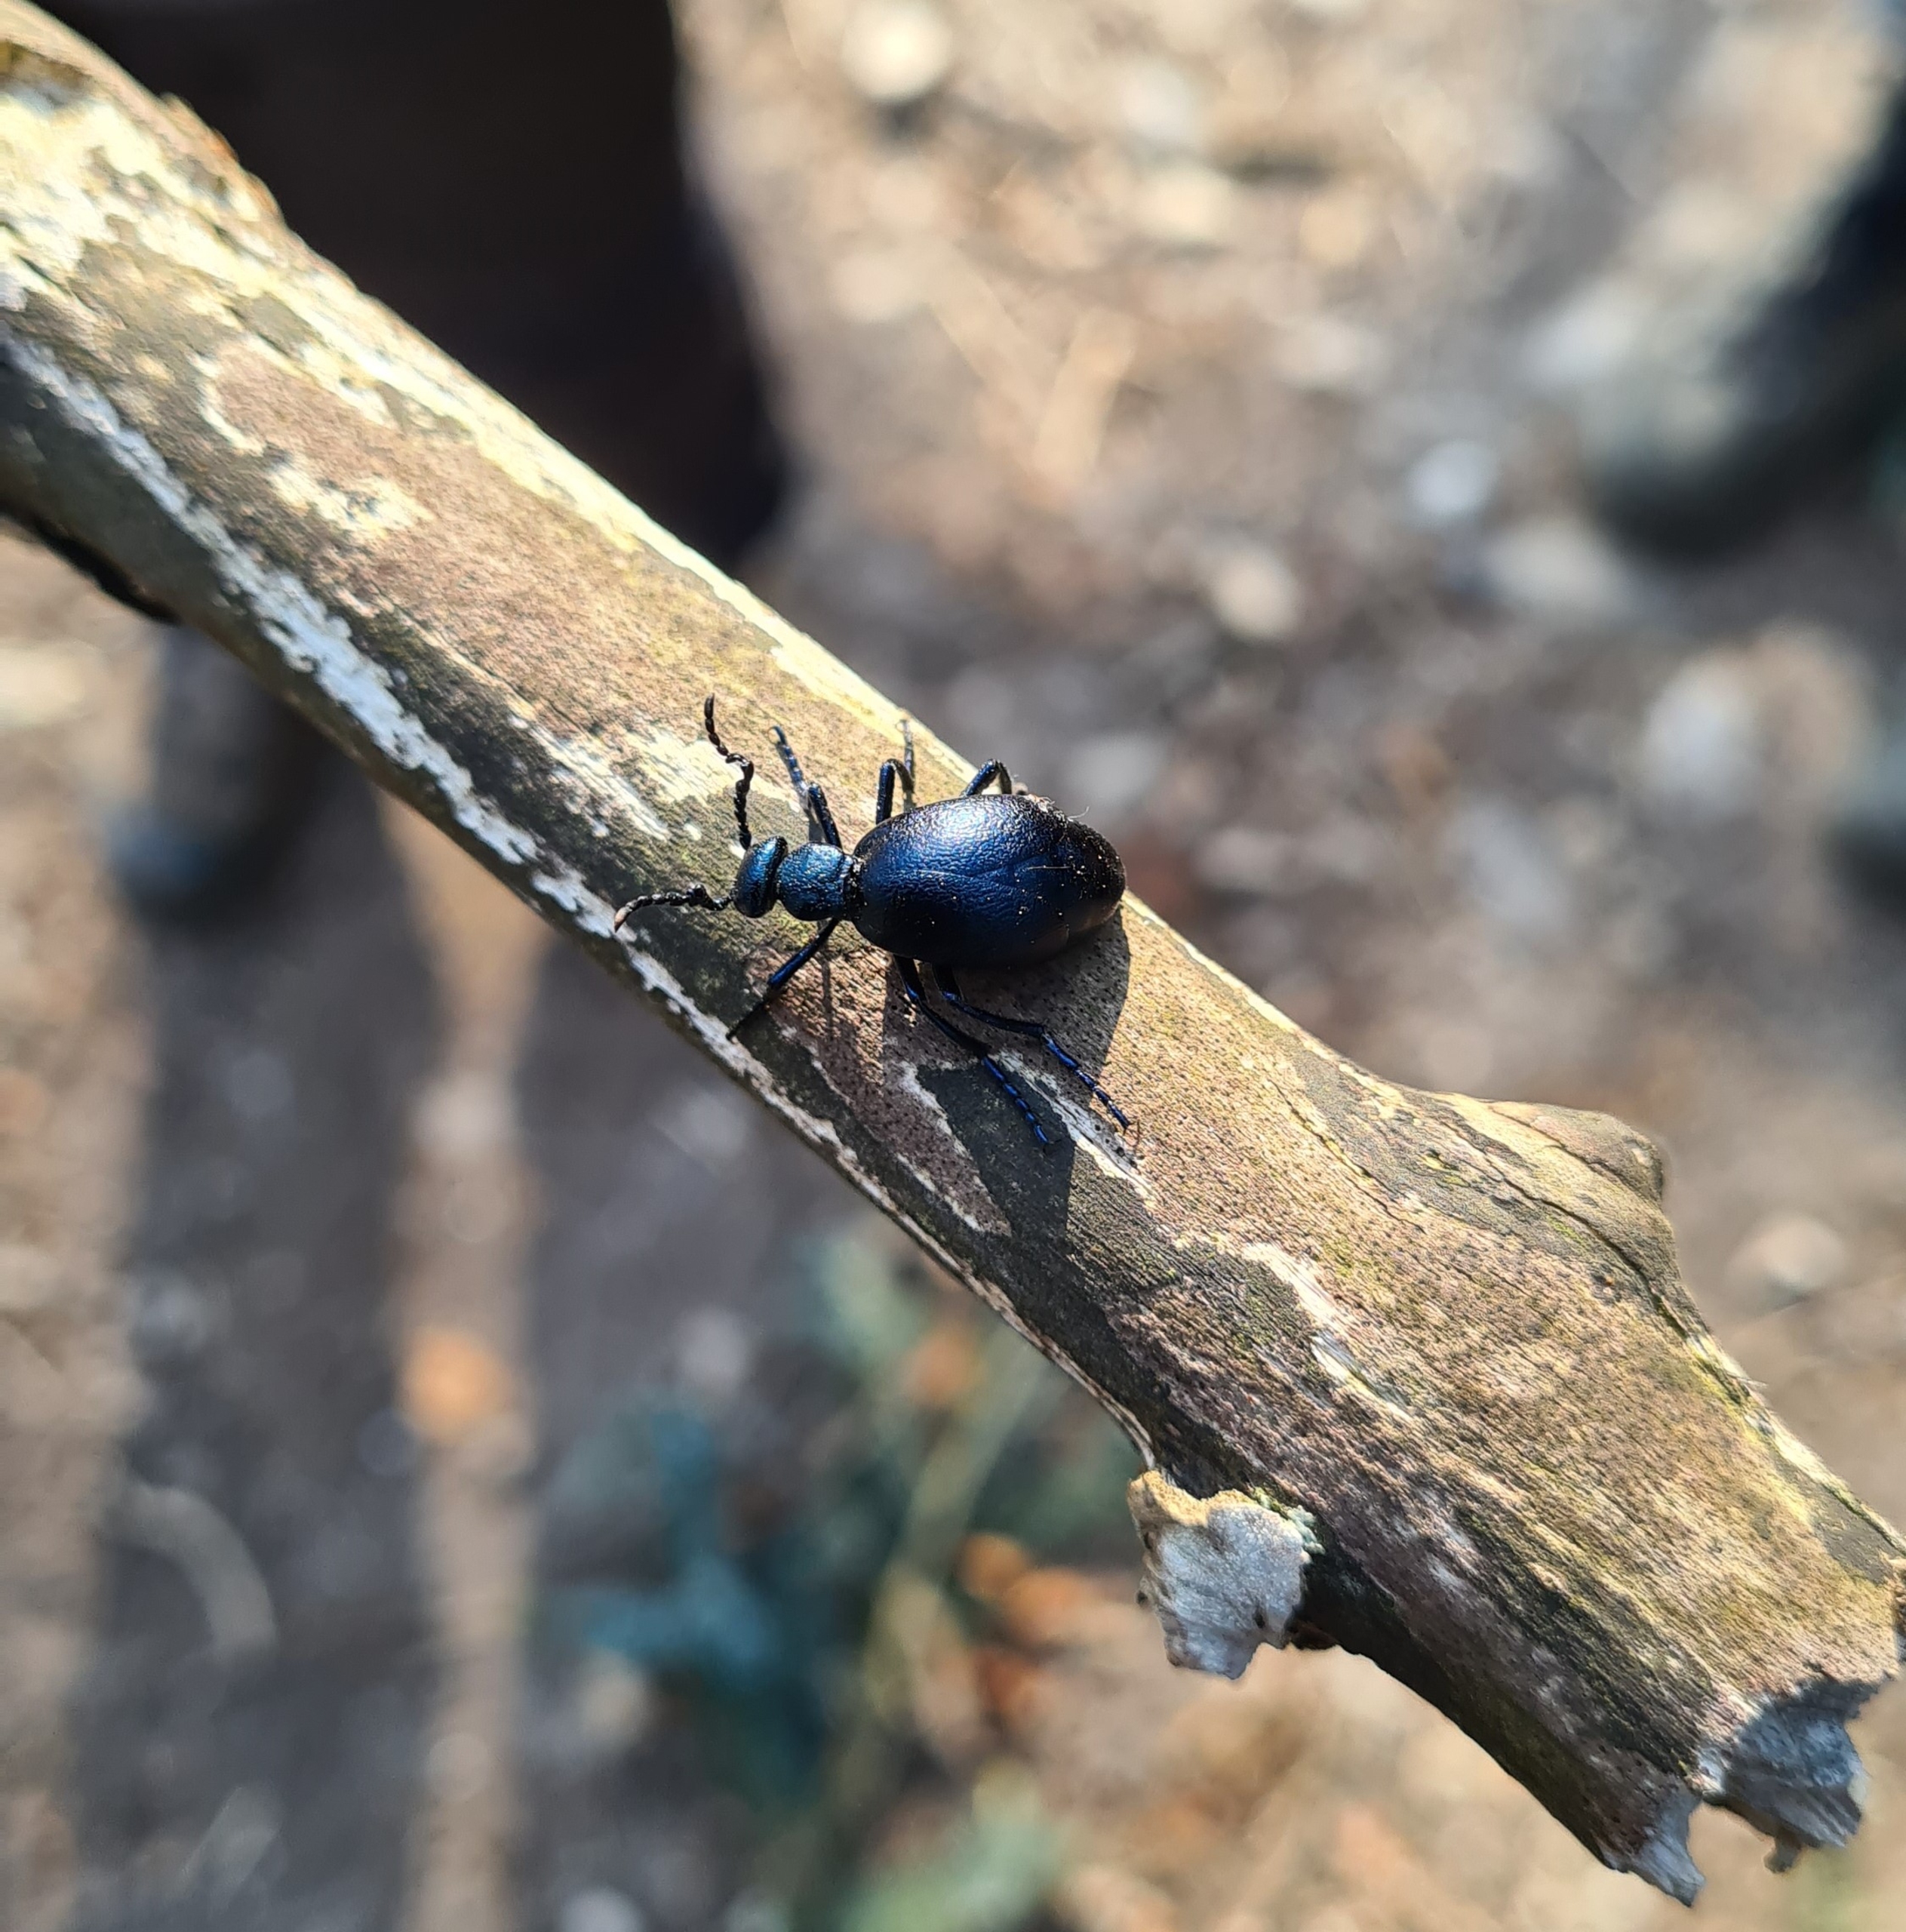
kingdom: Animalia
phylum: Arthropoda
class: Insecta
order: Coleoptera
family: Meloidae
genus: Meloe
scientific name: Meloe violaceus
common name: Blå oliebille
